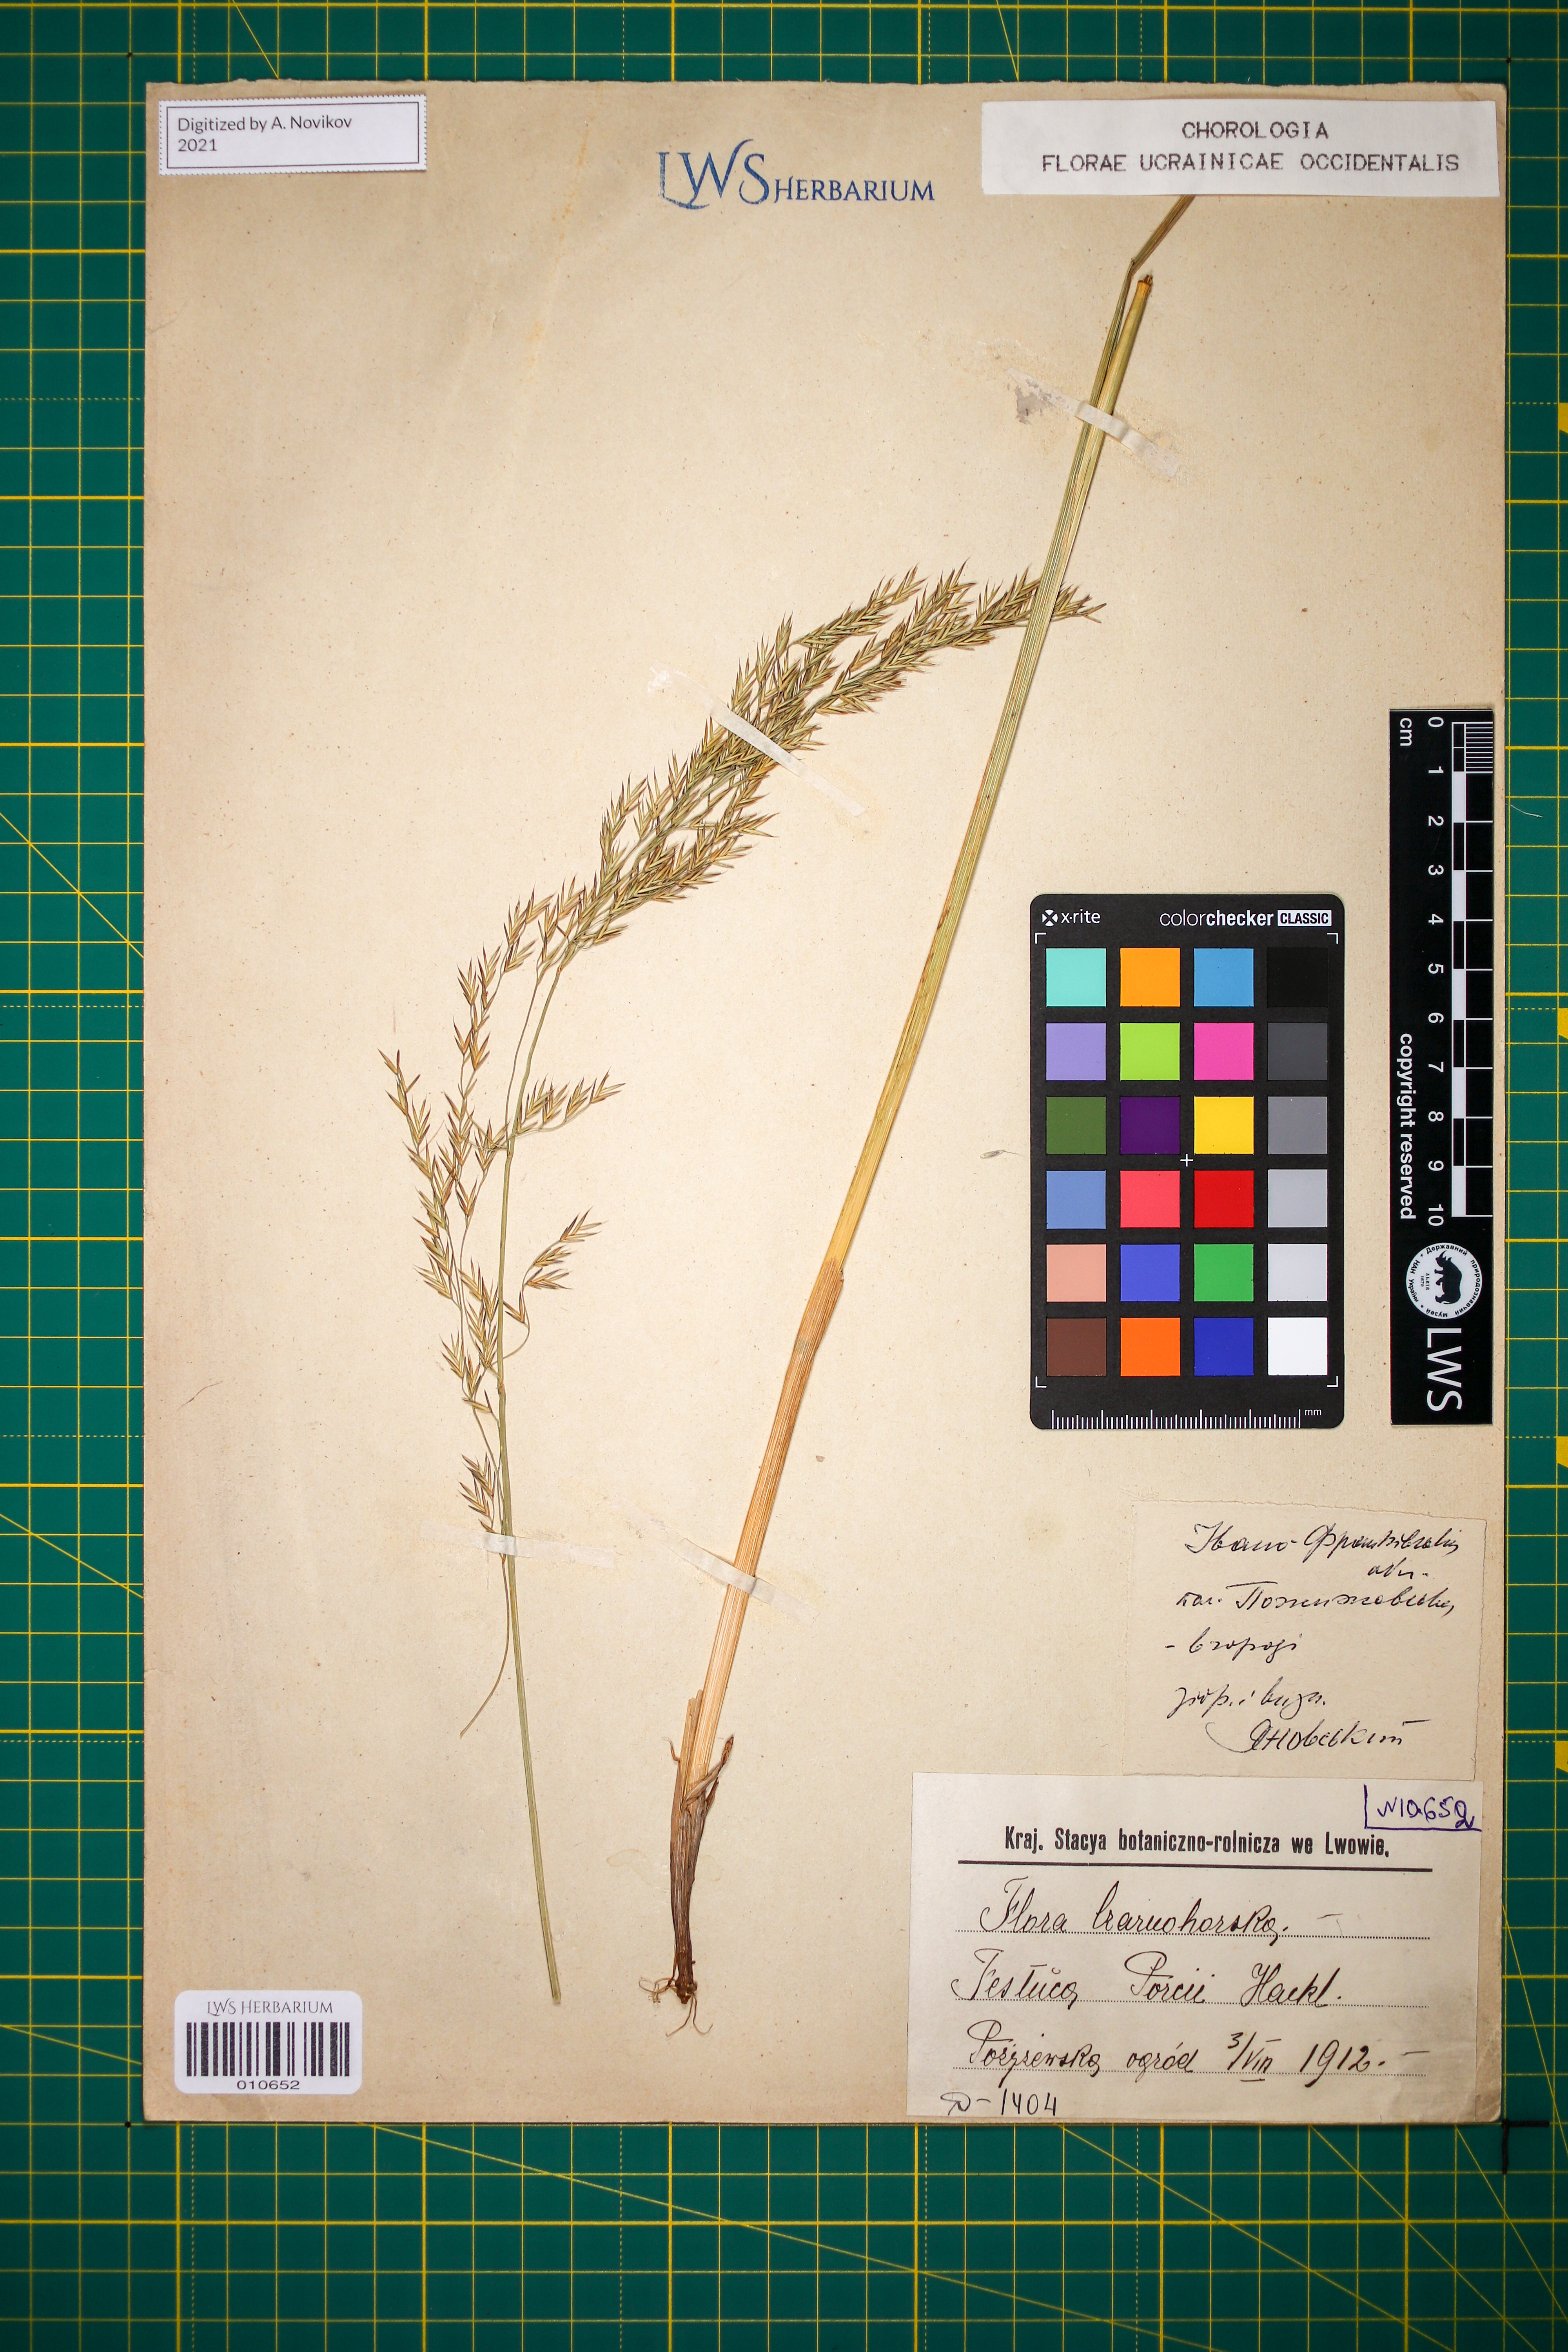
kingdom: Plantae
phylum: Tracheophyta
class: Liliopsida
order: Poales
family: Poaceae
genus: Festuca
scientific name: Festuca porcii
